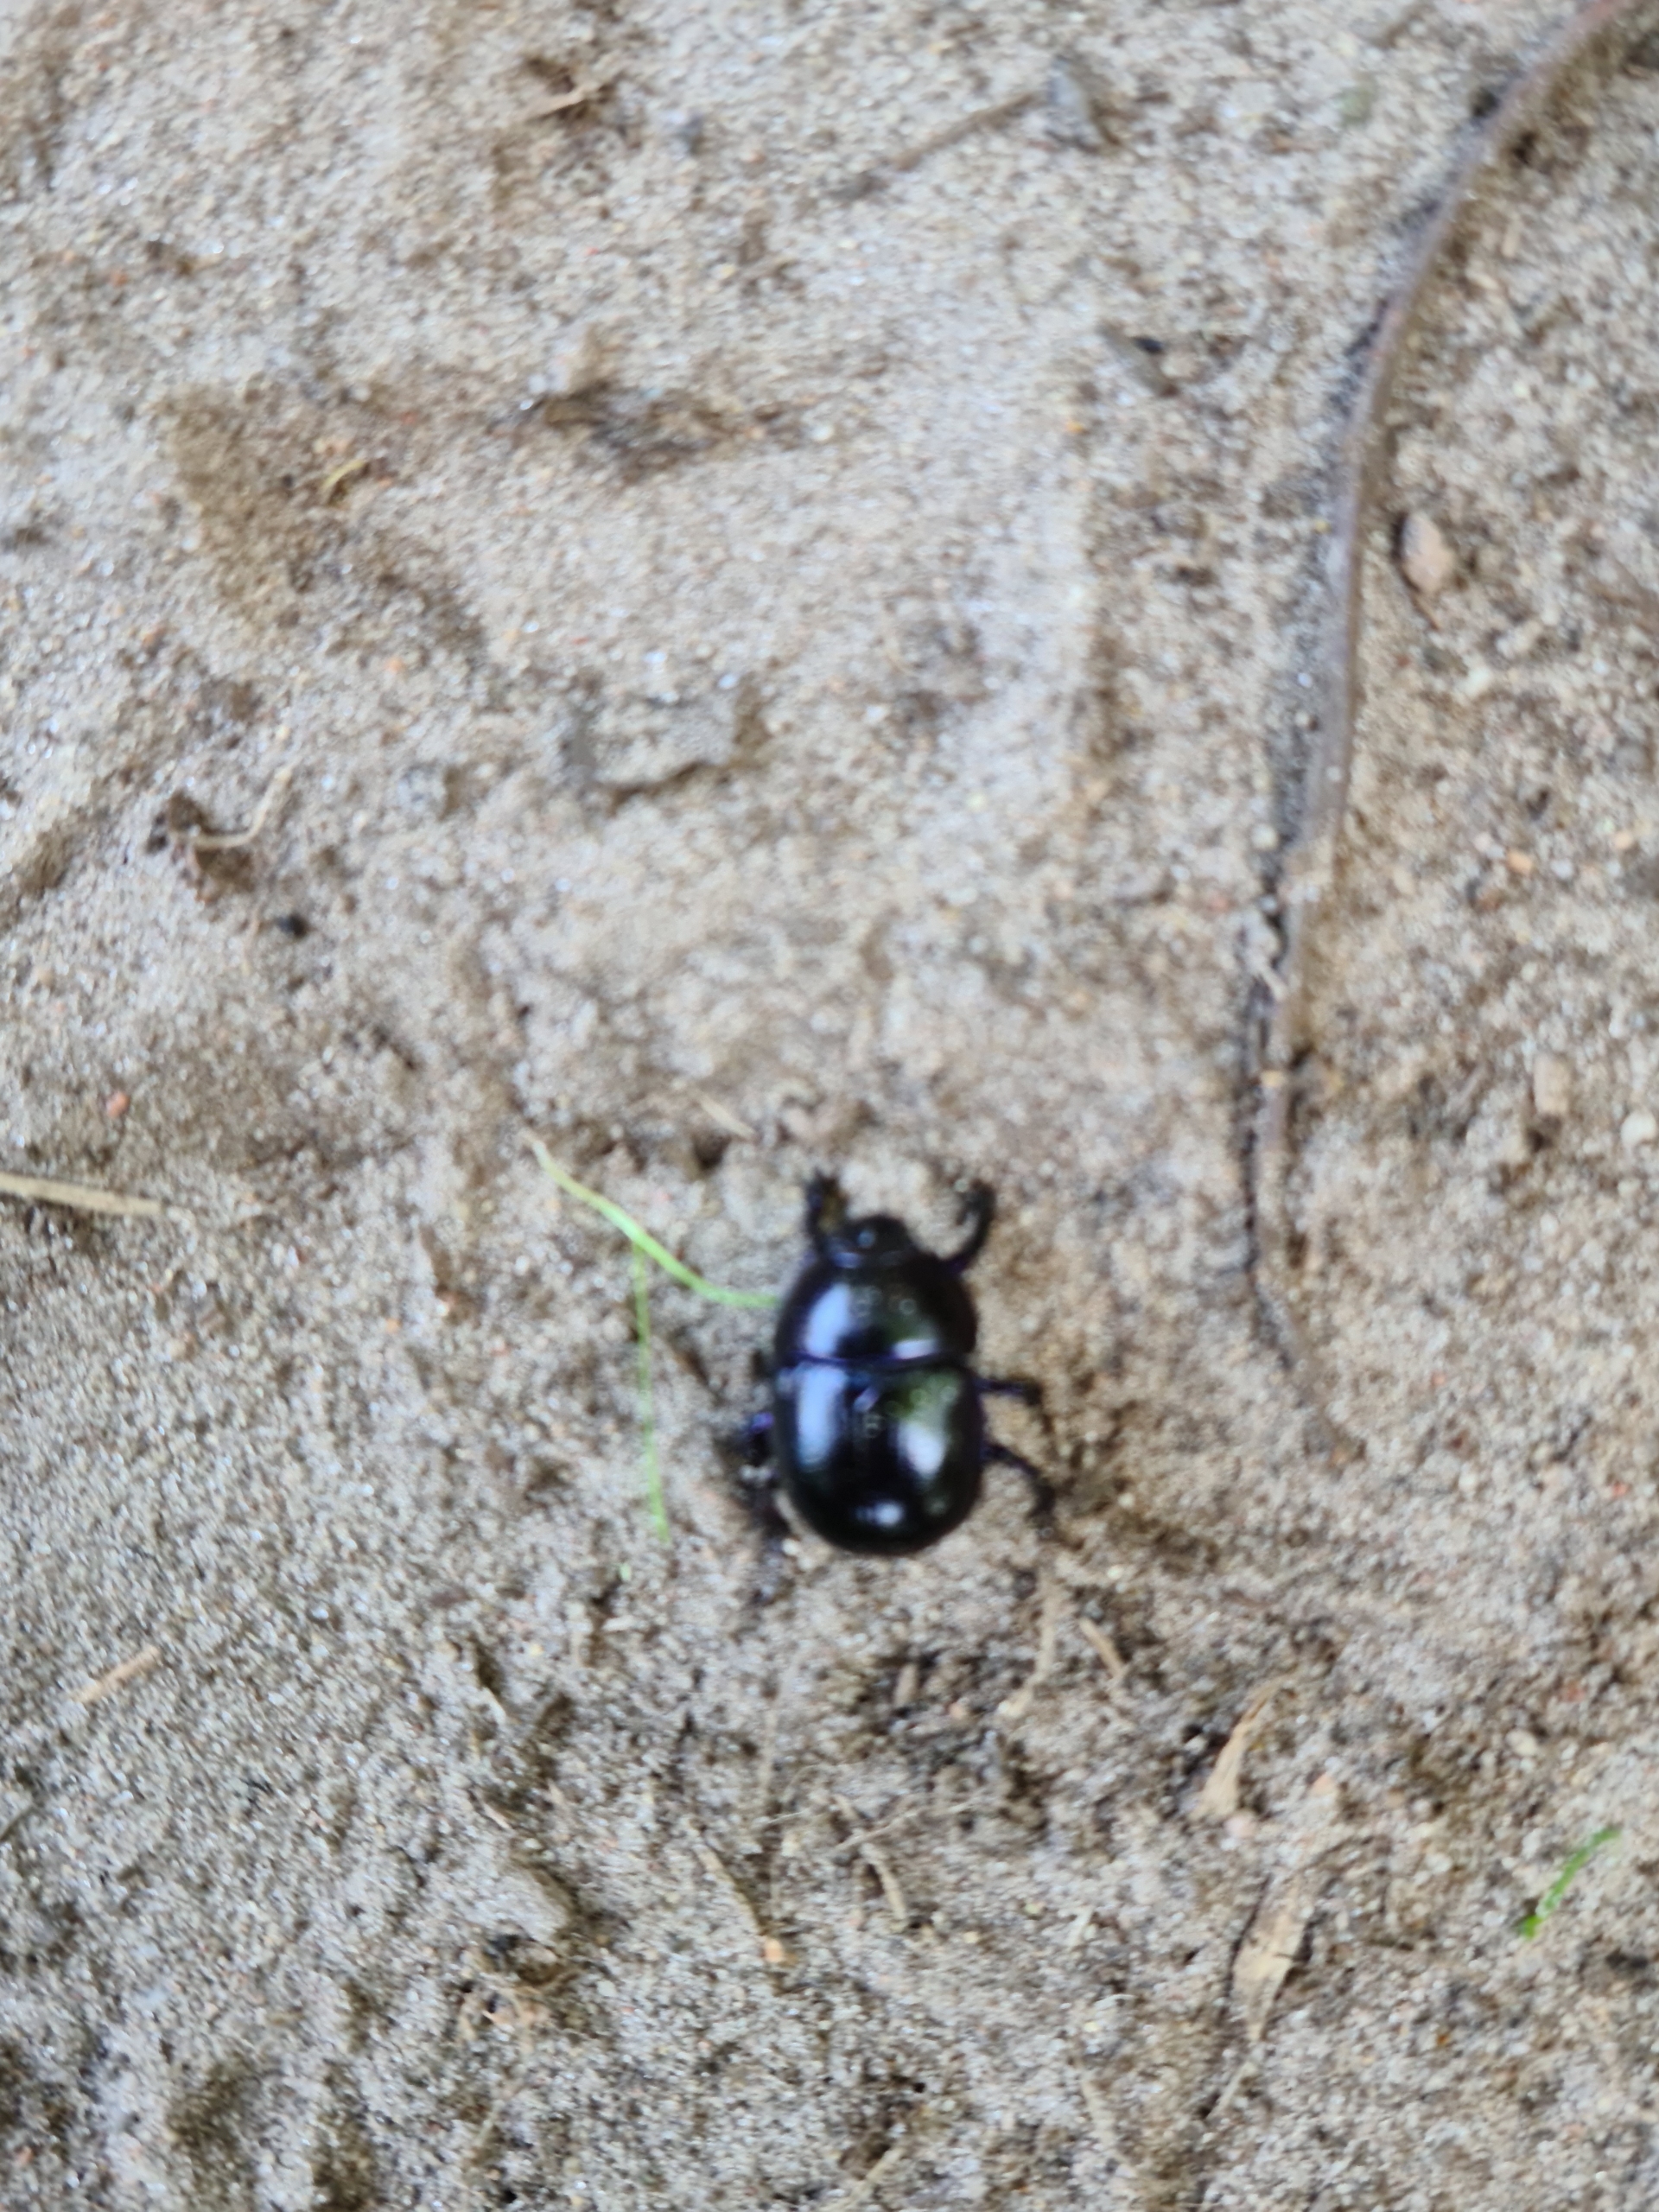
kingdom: Animalia
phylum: Arthropoda
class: Insecta
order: Coleoptera
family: Geotrupidae
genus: Anoplotrupes
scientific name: Anoplotrupes stercorosus
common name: Skovskarnbasse
